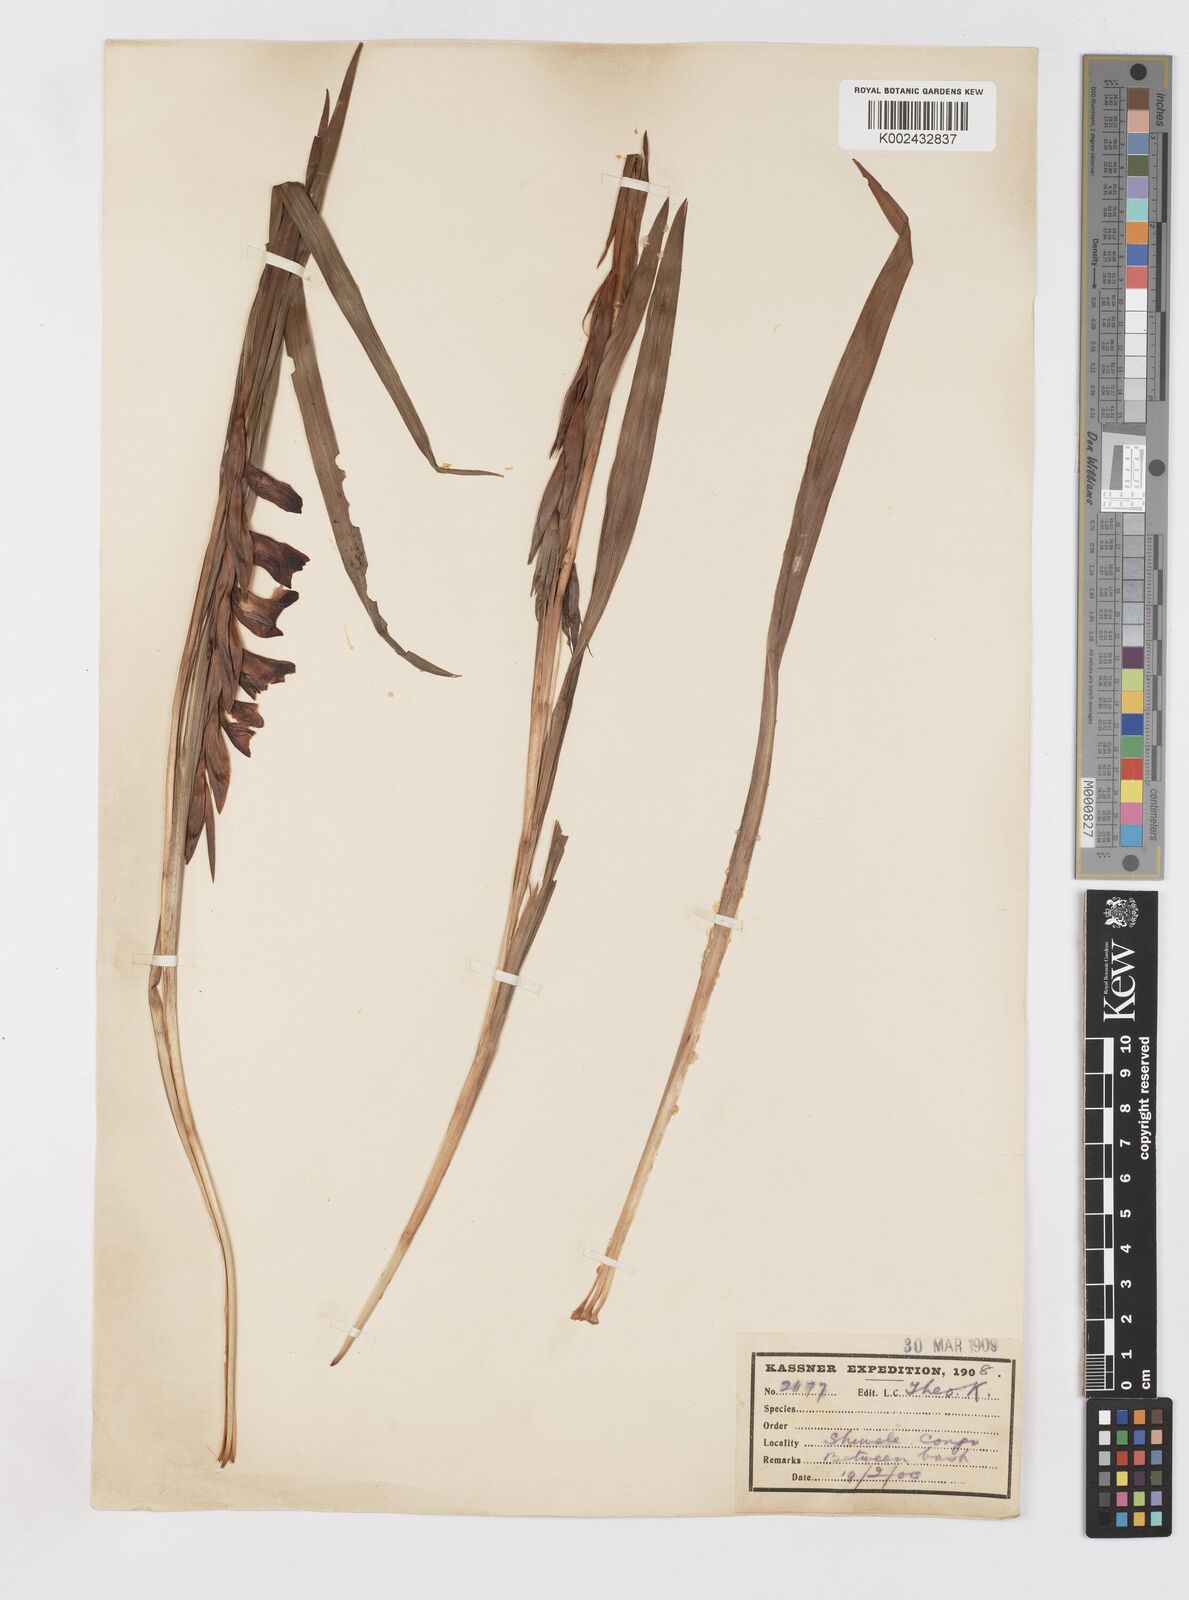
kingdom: Plantae
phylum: Tracheophyta
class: Liliopsida
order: Asparagales
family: Iridaceae
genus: Gladiolus
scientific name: Gladiolus gregarius
